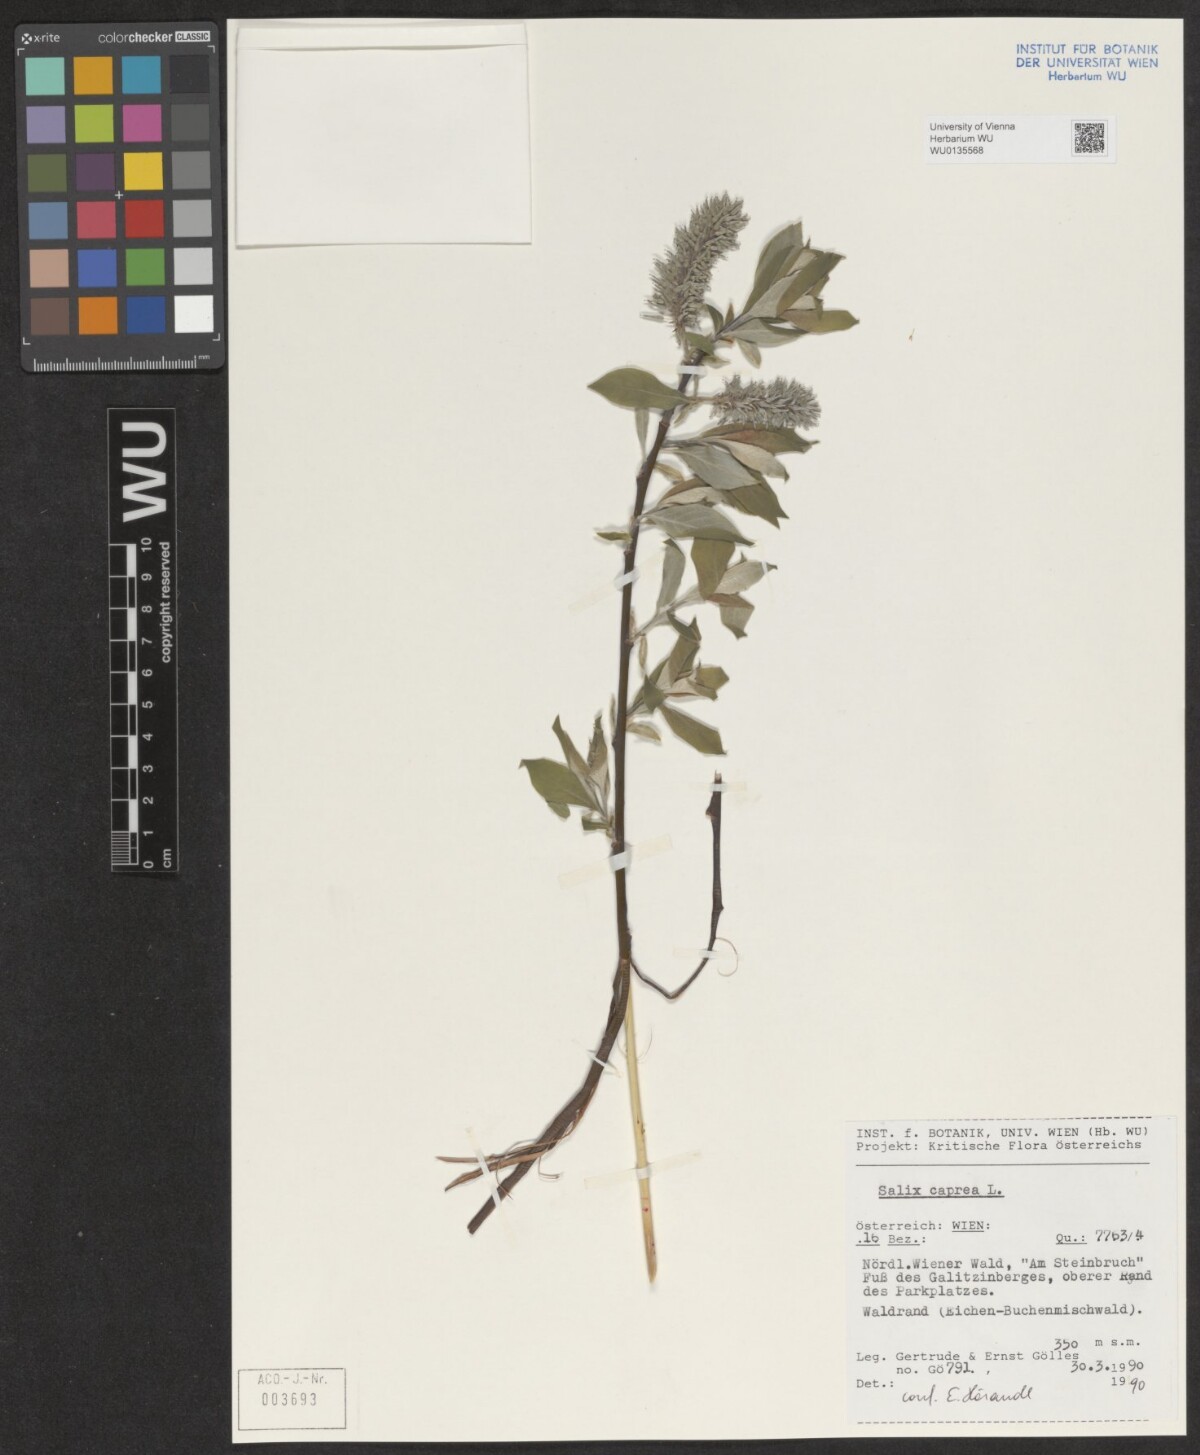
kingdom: Plantae
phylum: Tracheophyta
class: Magnoliopsida
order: Malpighiales
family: Salicaceae
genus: Salix
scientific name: Salix caprea
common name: Goat willow
